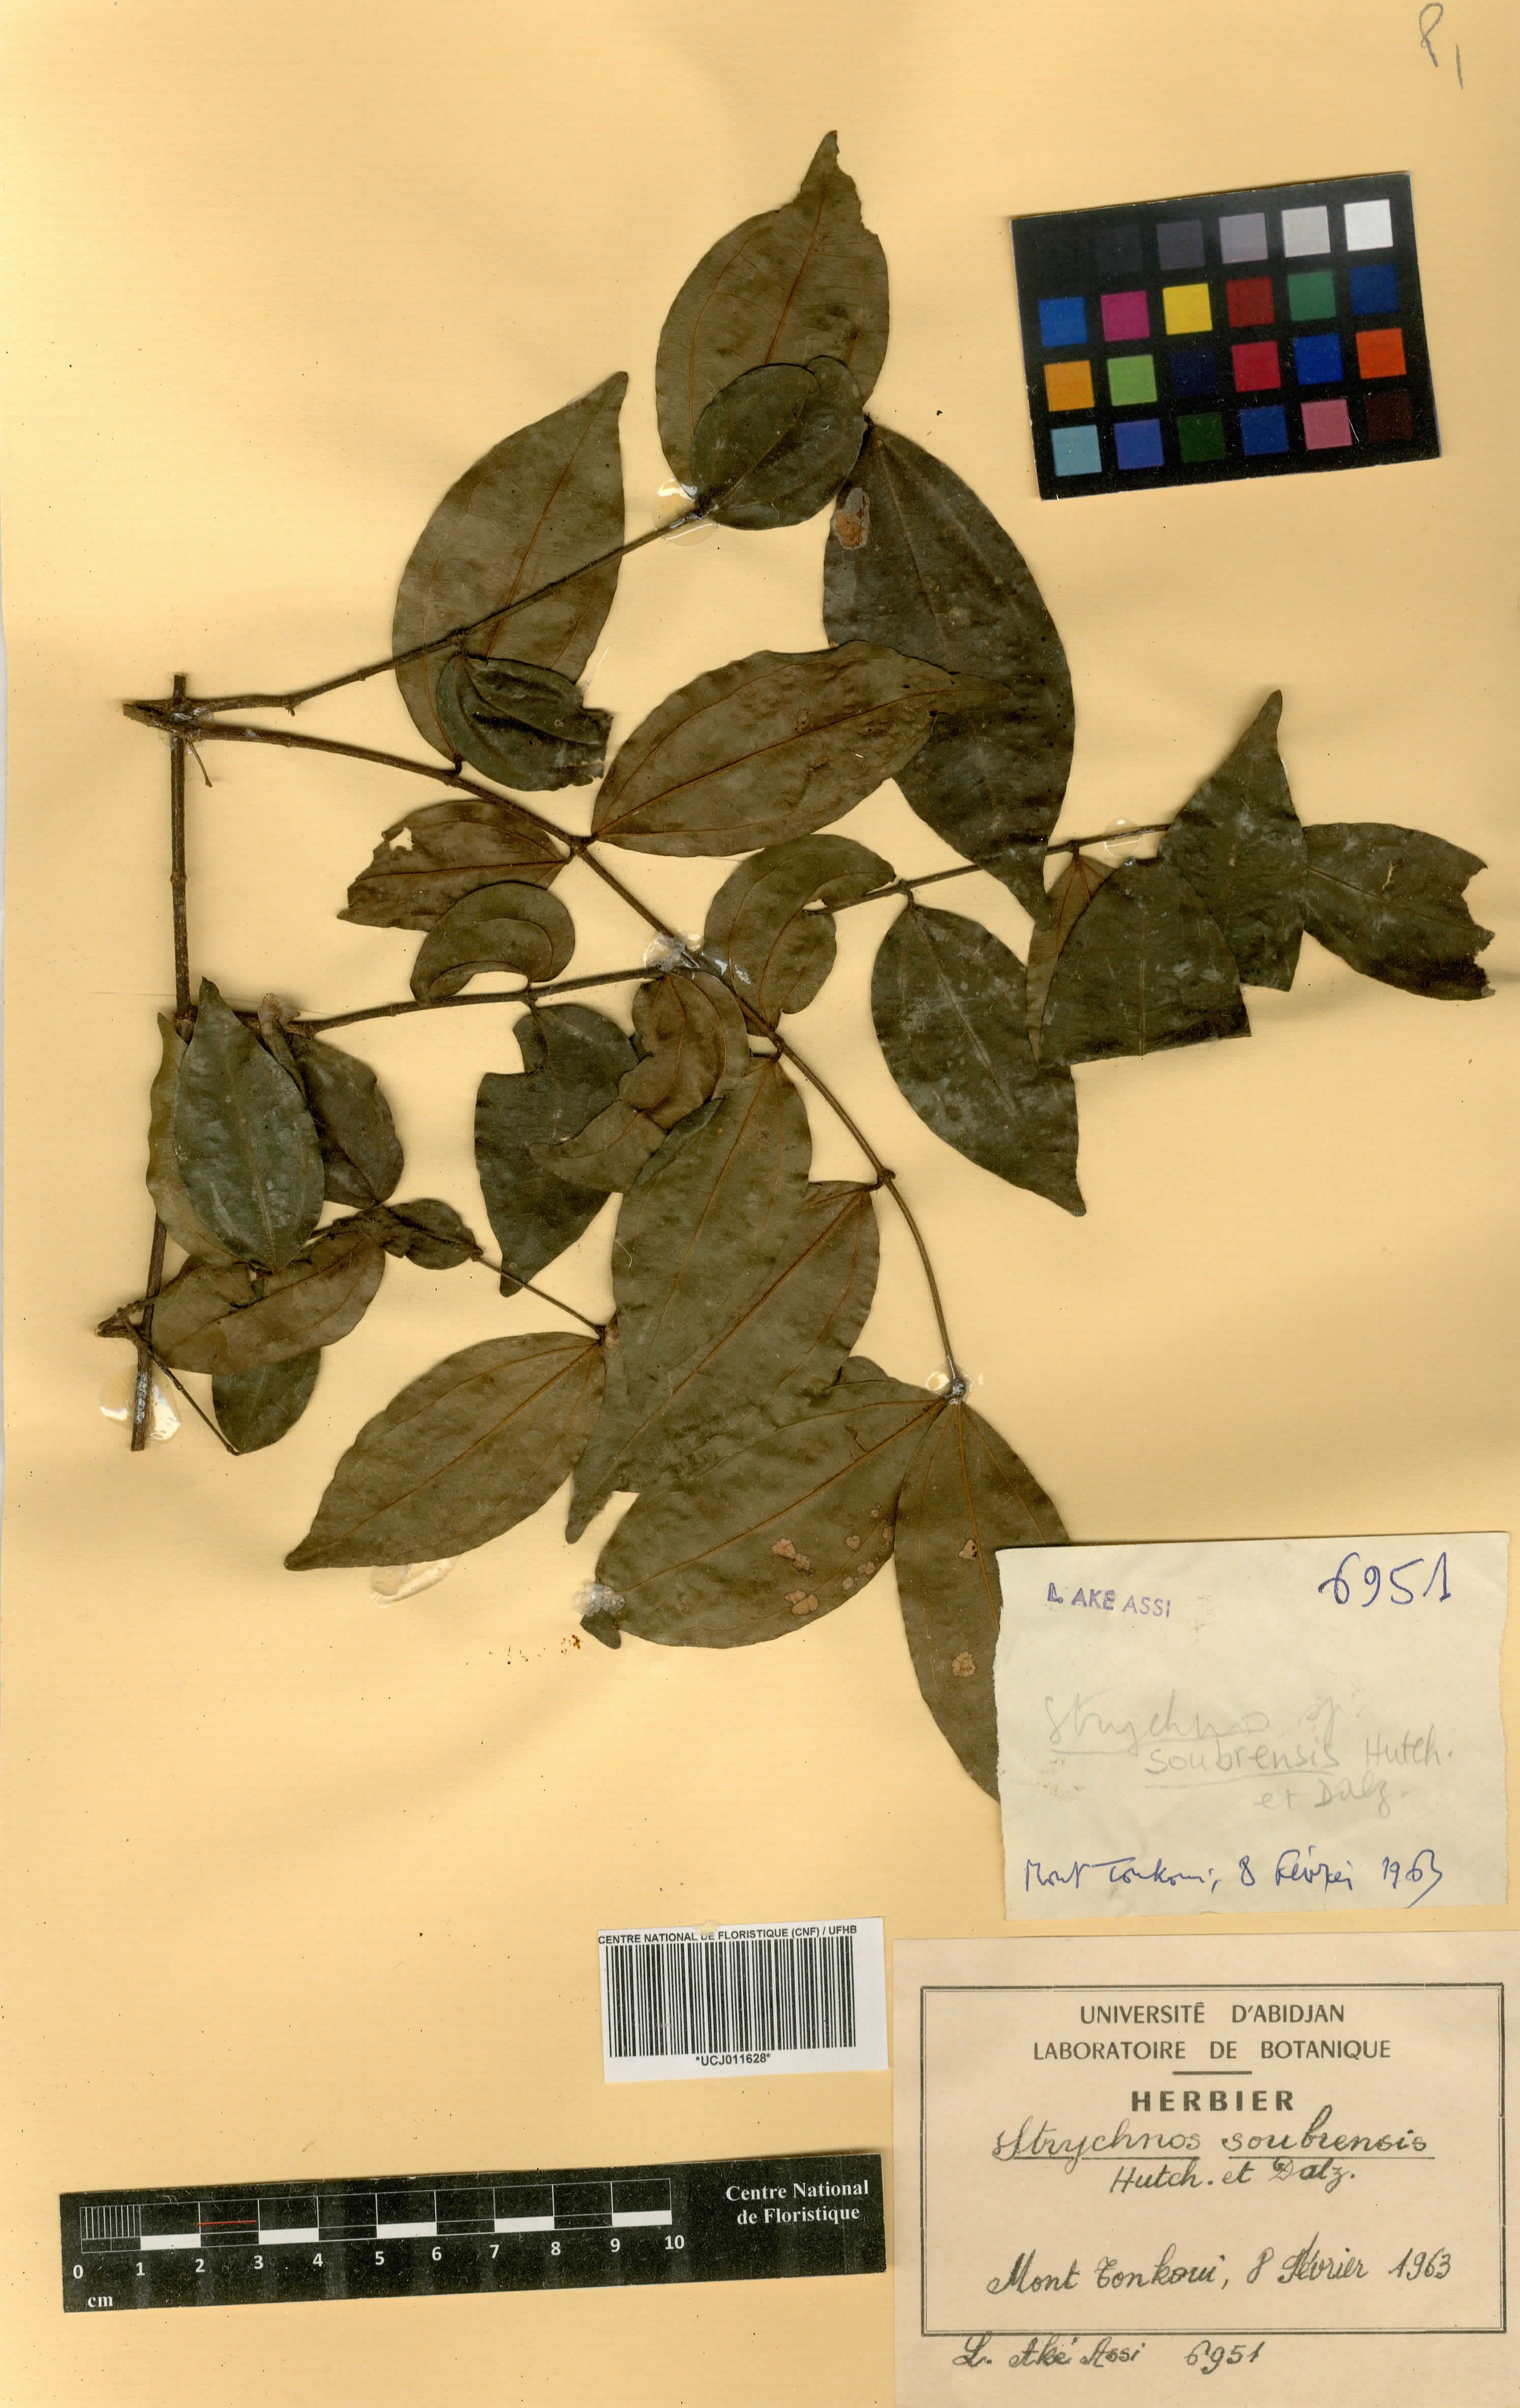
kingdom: Plantae
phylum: Tracheophyta
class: Magnoliopsida
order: Gentianales
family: Loganiaceae
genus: Strychnos
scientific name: Strychnos soubrensis
